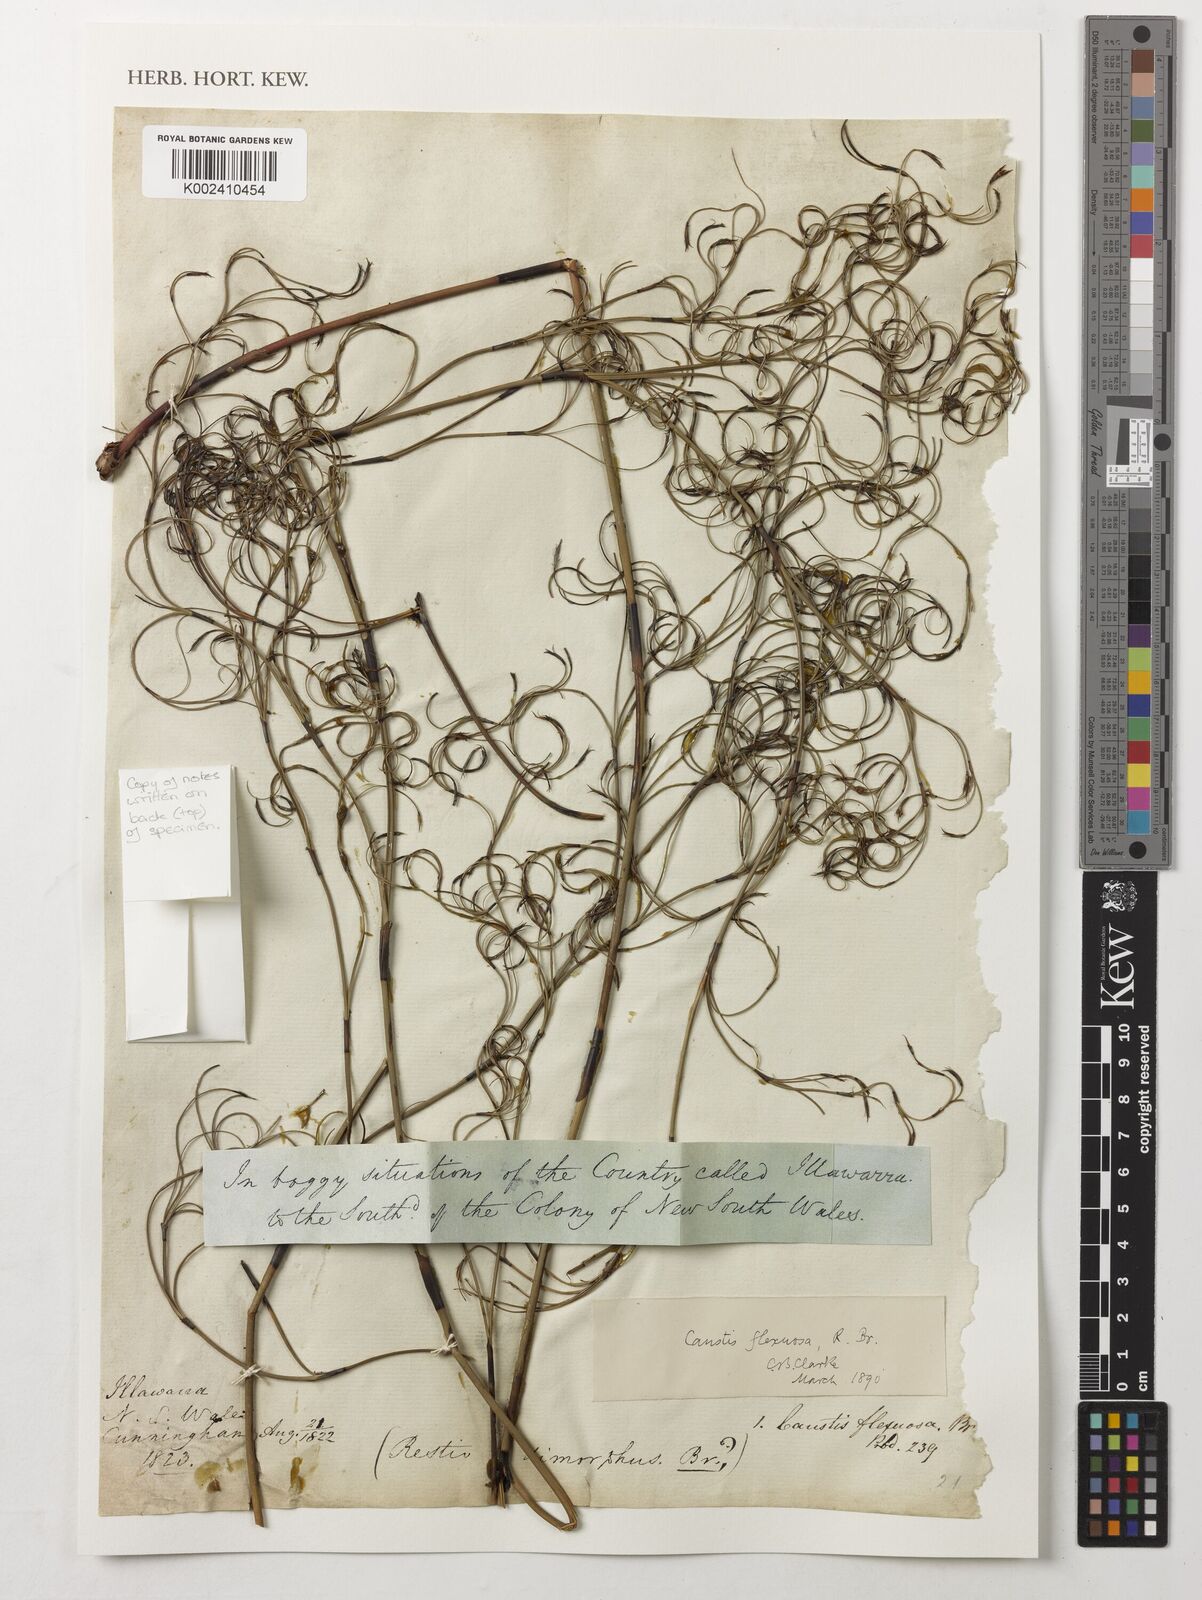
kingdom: Plantae
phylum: Tracheophyta
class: Liliopsida
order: Poales
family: Cyperaceae
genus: Caustis
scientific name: Caustis flexuosa
